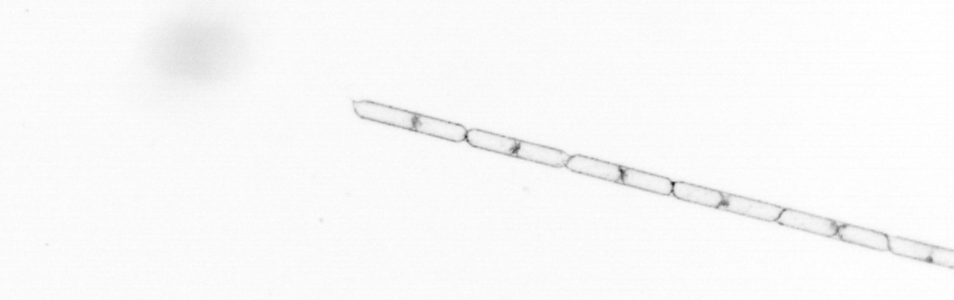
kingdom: Chromista
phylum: Ochrophyta
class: Bacillariophyceae
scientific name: Bacillariophyceae
